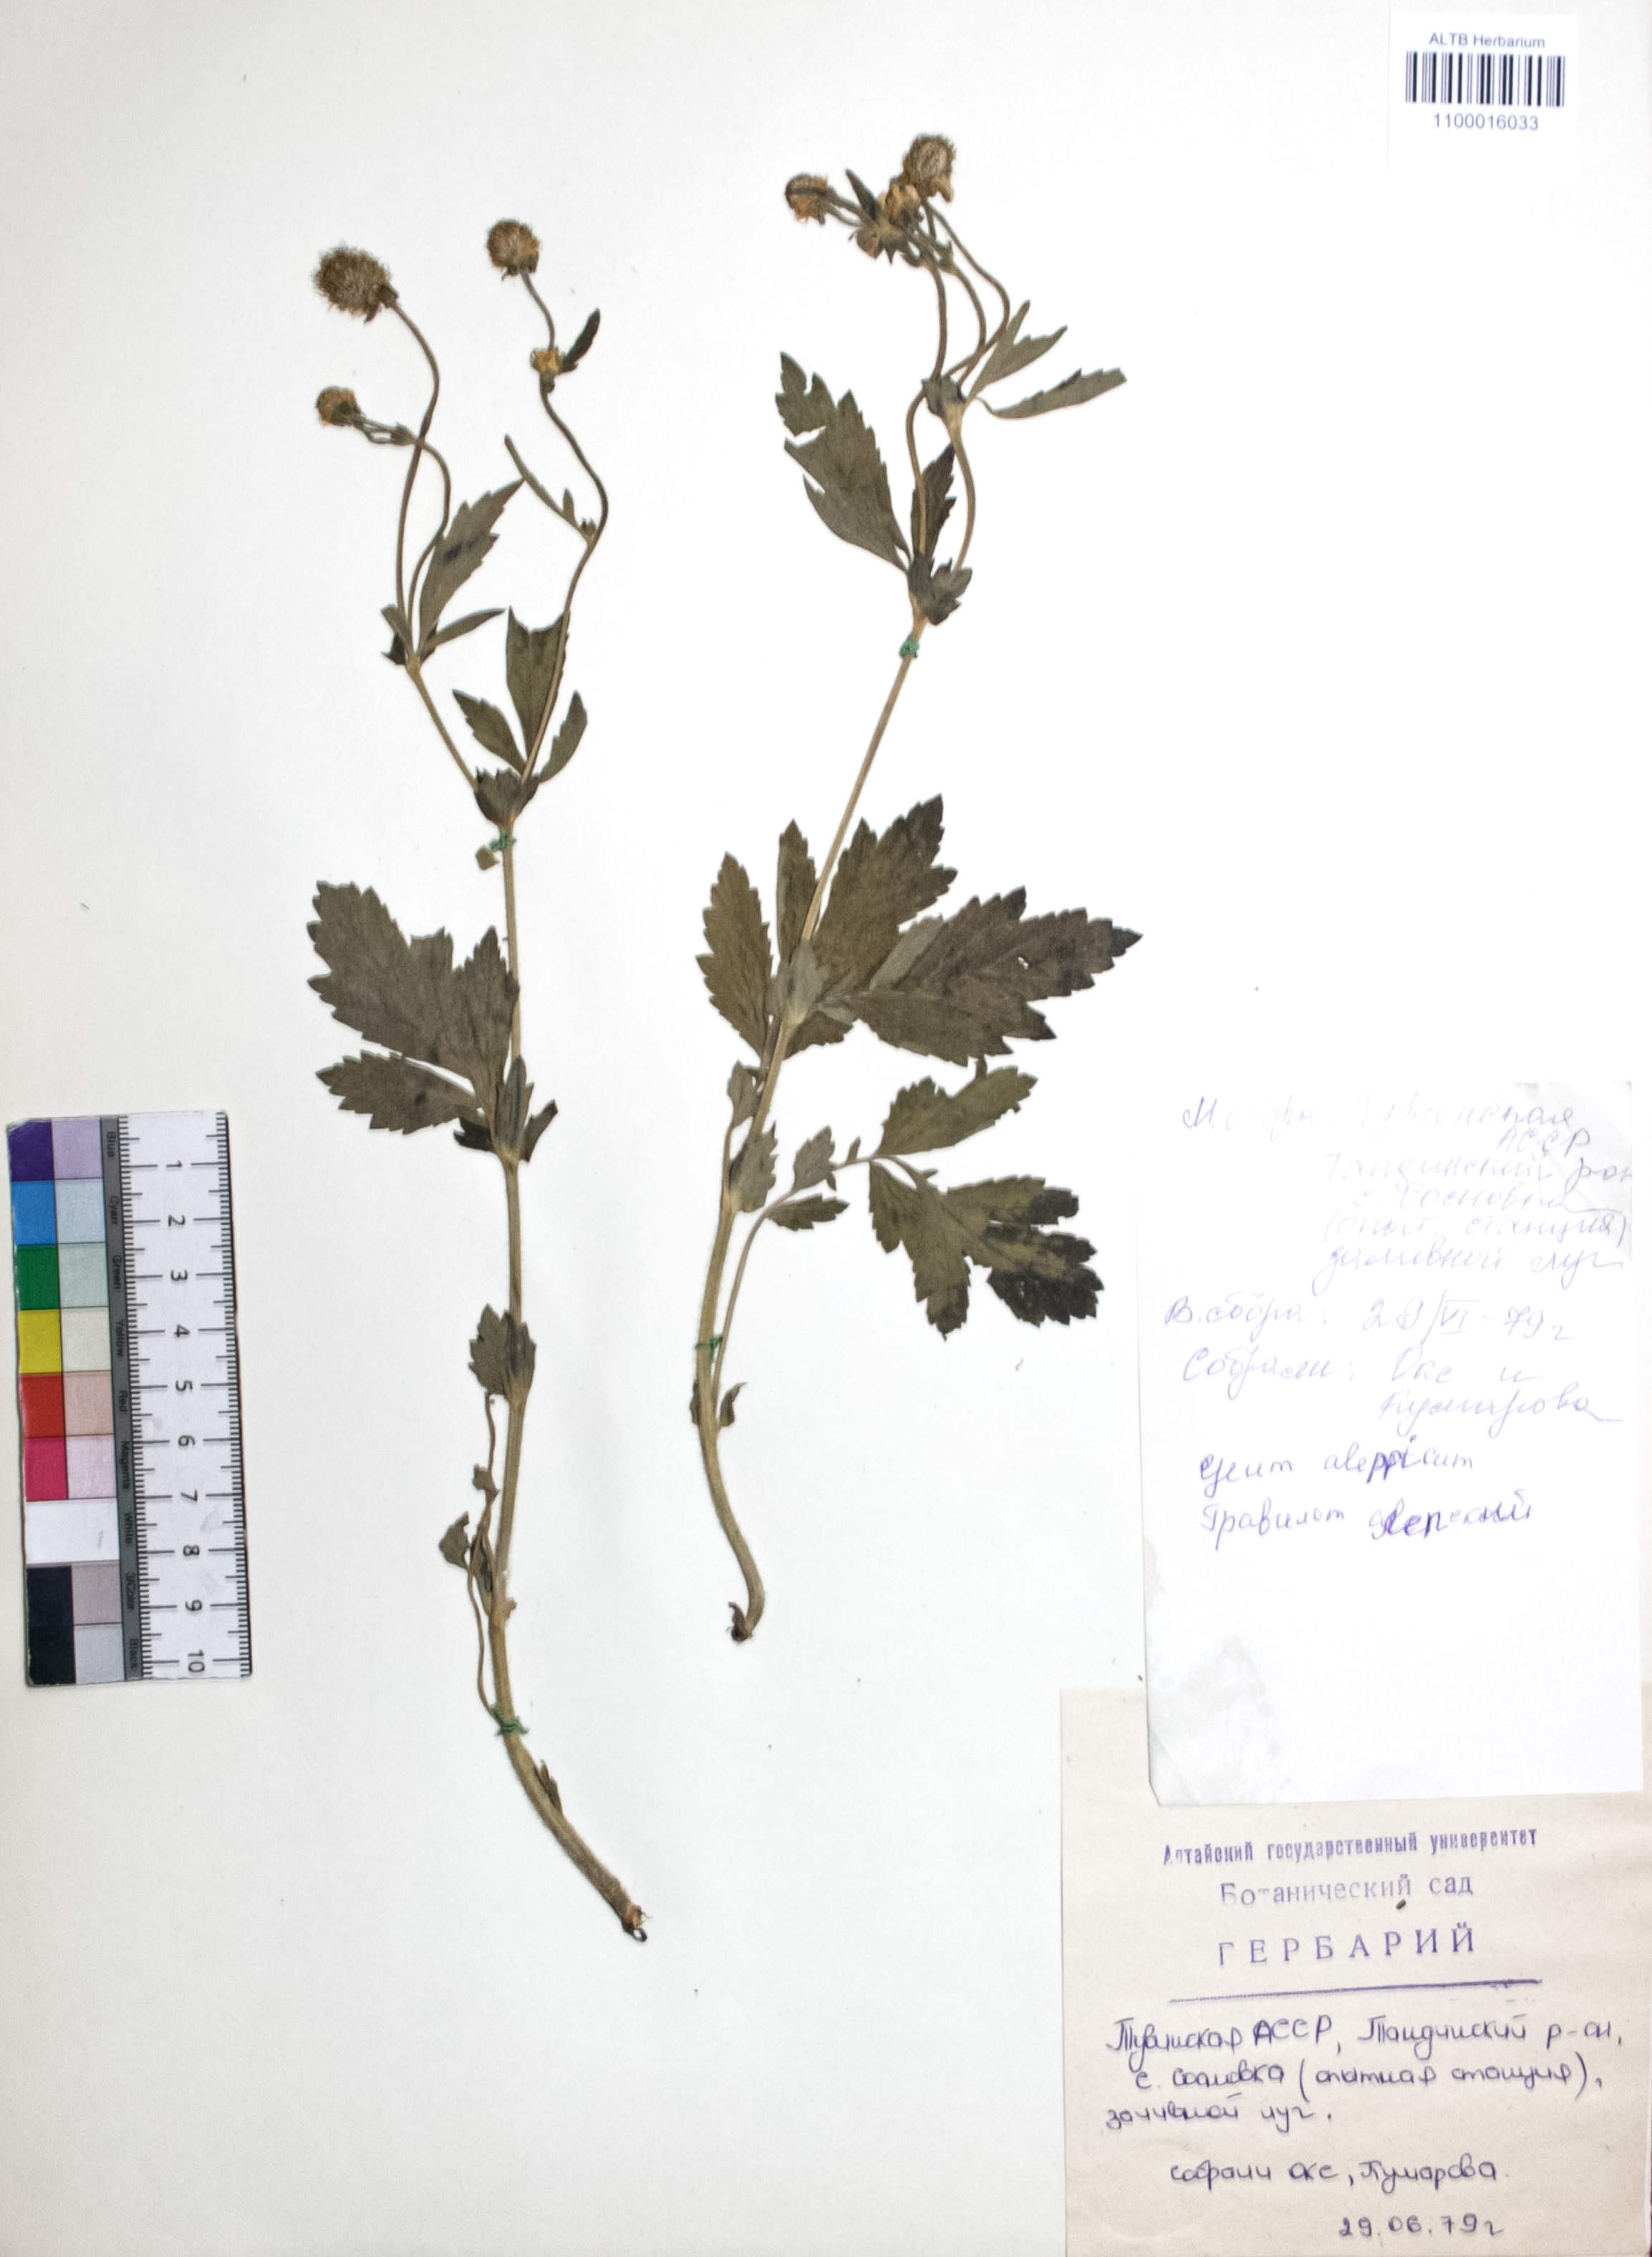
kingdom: Plantae
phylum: Tracheophyta
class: Magnoliopsida
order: Rosales
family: Rosaceae
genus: Geum
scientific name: Geum aleppicum
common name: Yellow avens
